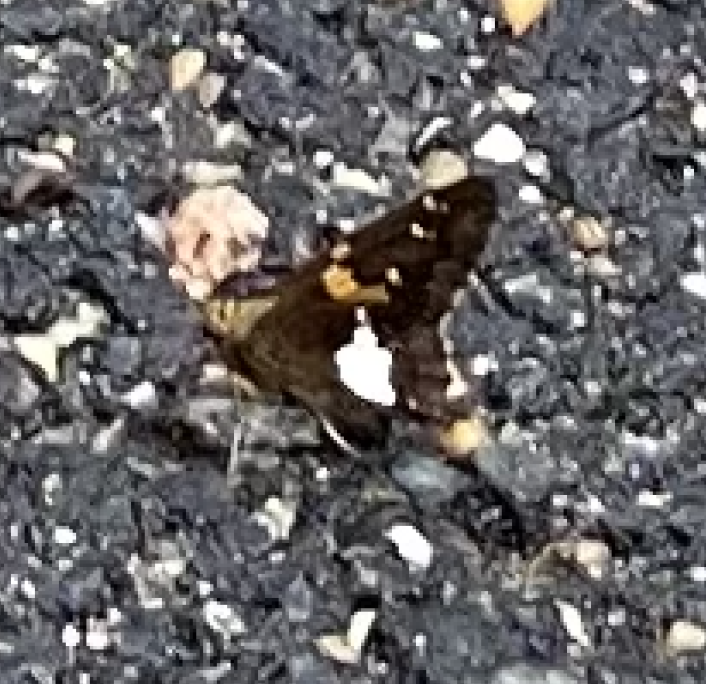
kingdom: Animalia
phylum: Arthropoda
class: Insecta
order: Lepidoptera
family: Hesperiidae
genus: Epargyreus
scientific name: Epargyreus clarus
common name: Silver-spotted Skipper
